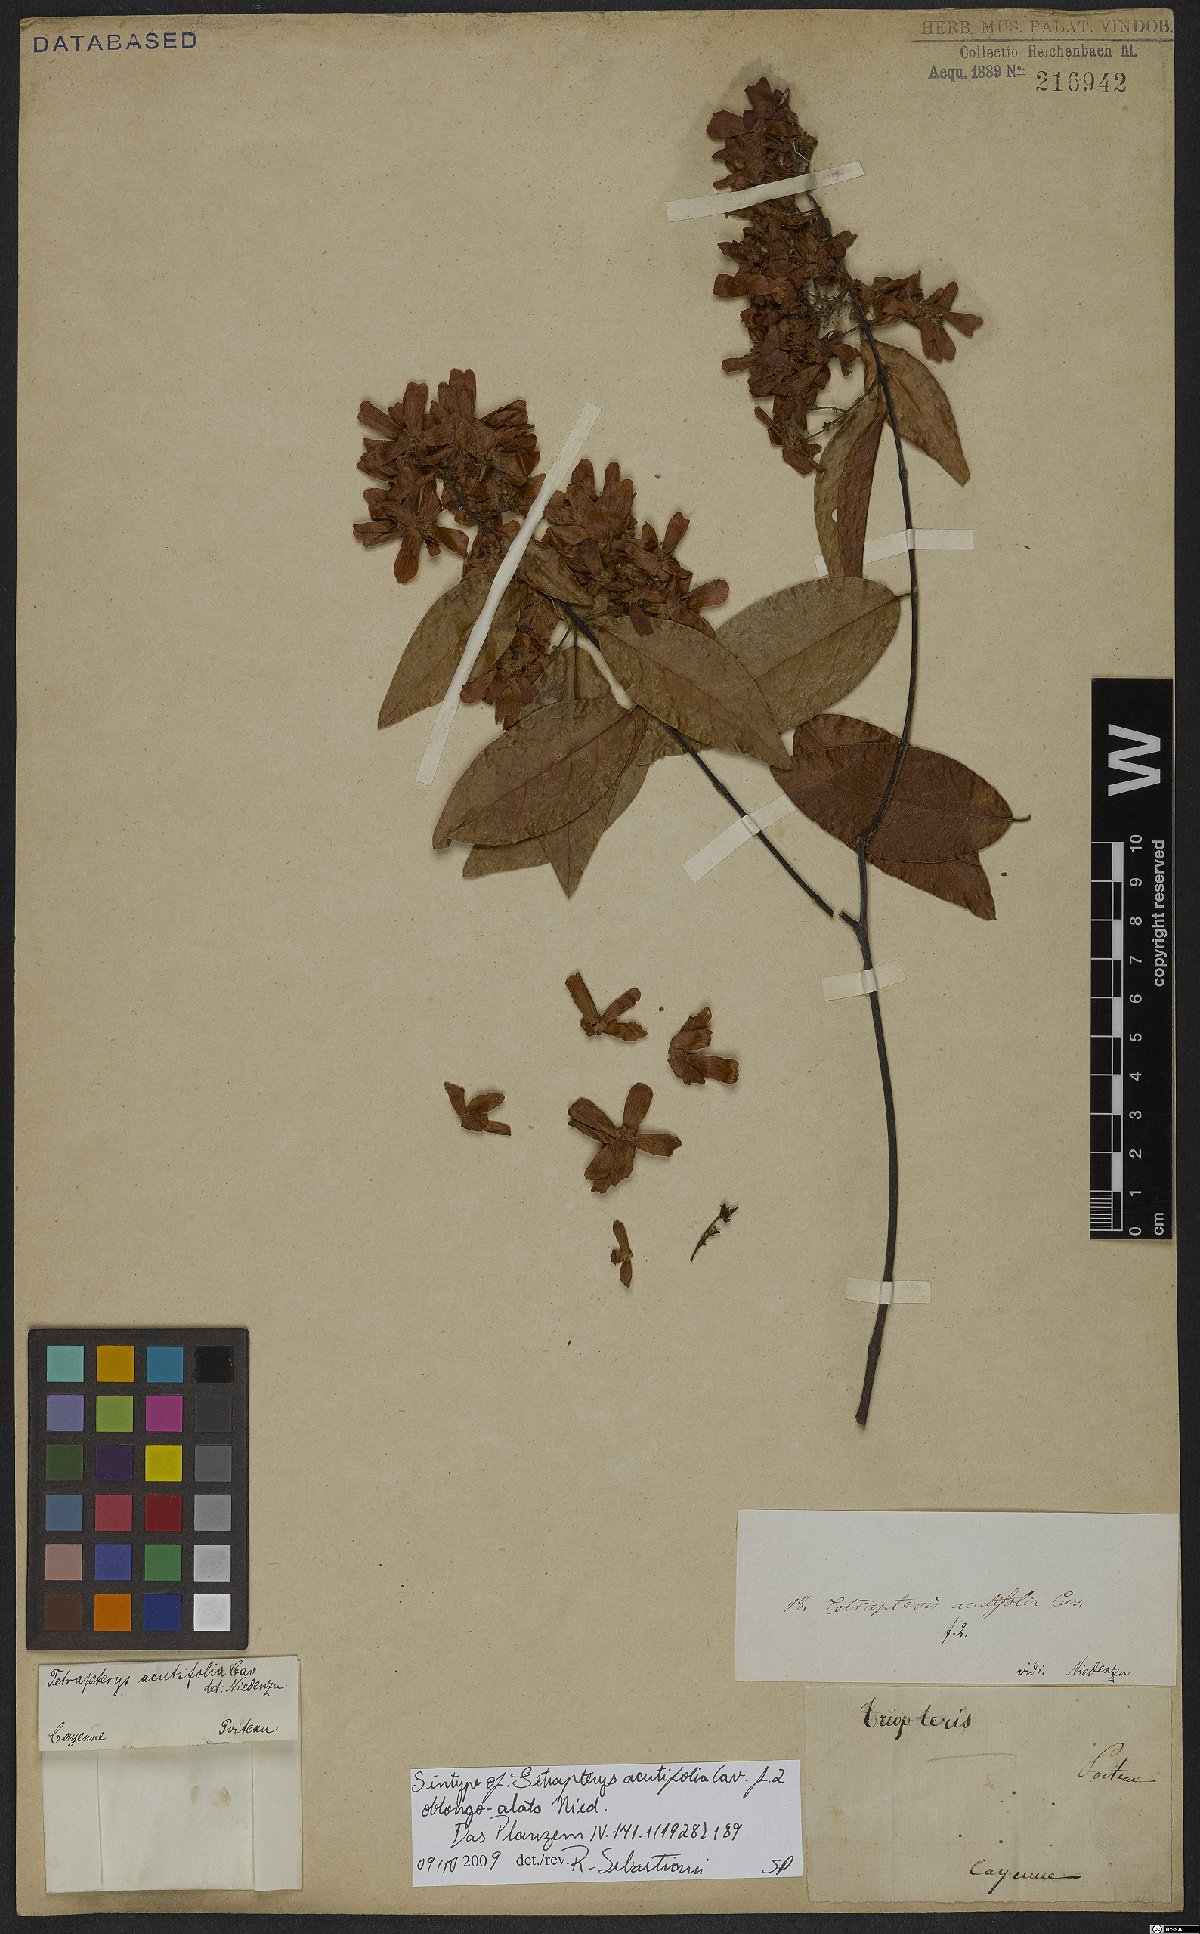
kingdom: Plantae
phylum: Tracheophyta
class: Magnoliopsida
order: Malpighiales
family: Malpighiaceae
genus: Niedenzuella
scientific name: Niedenzuella acutifolia
